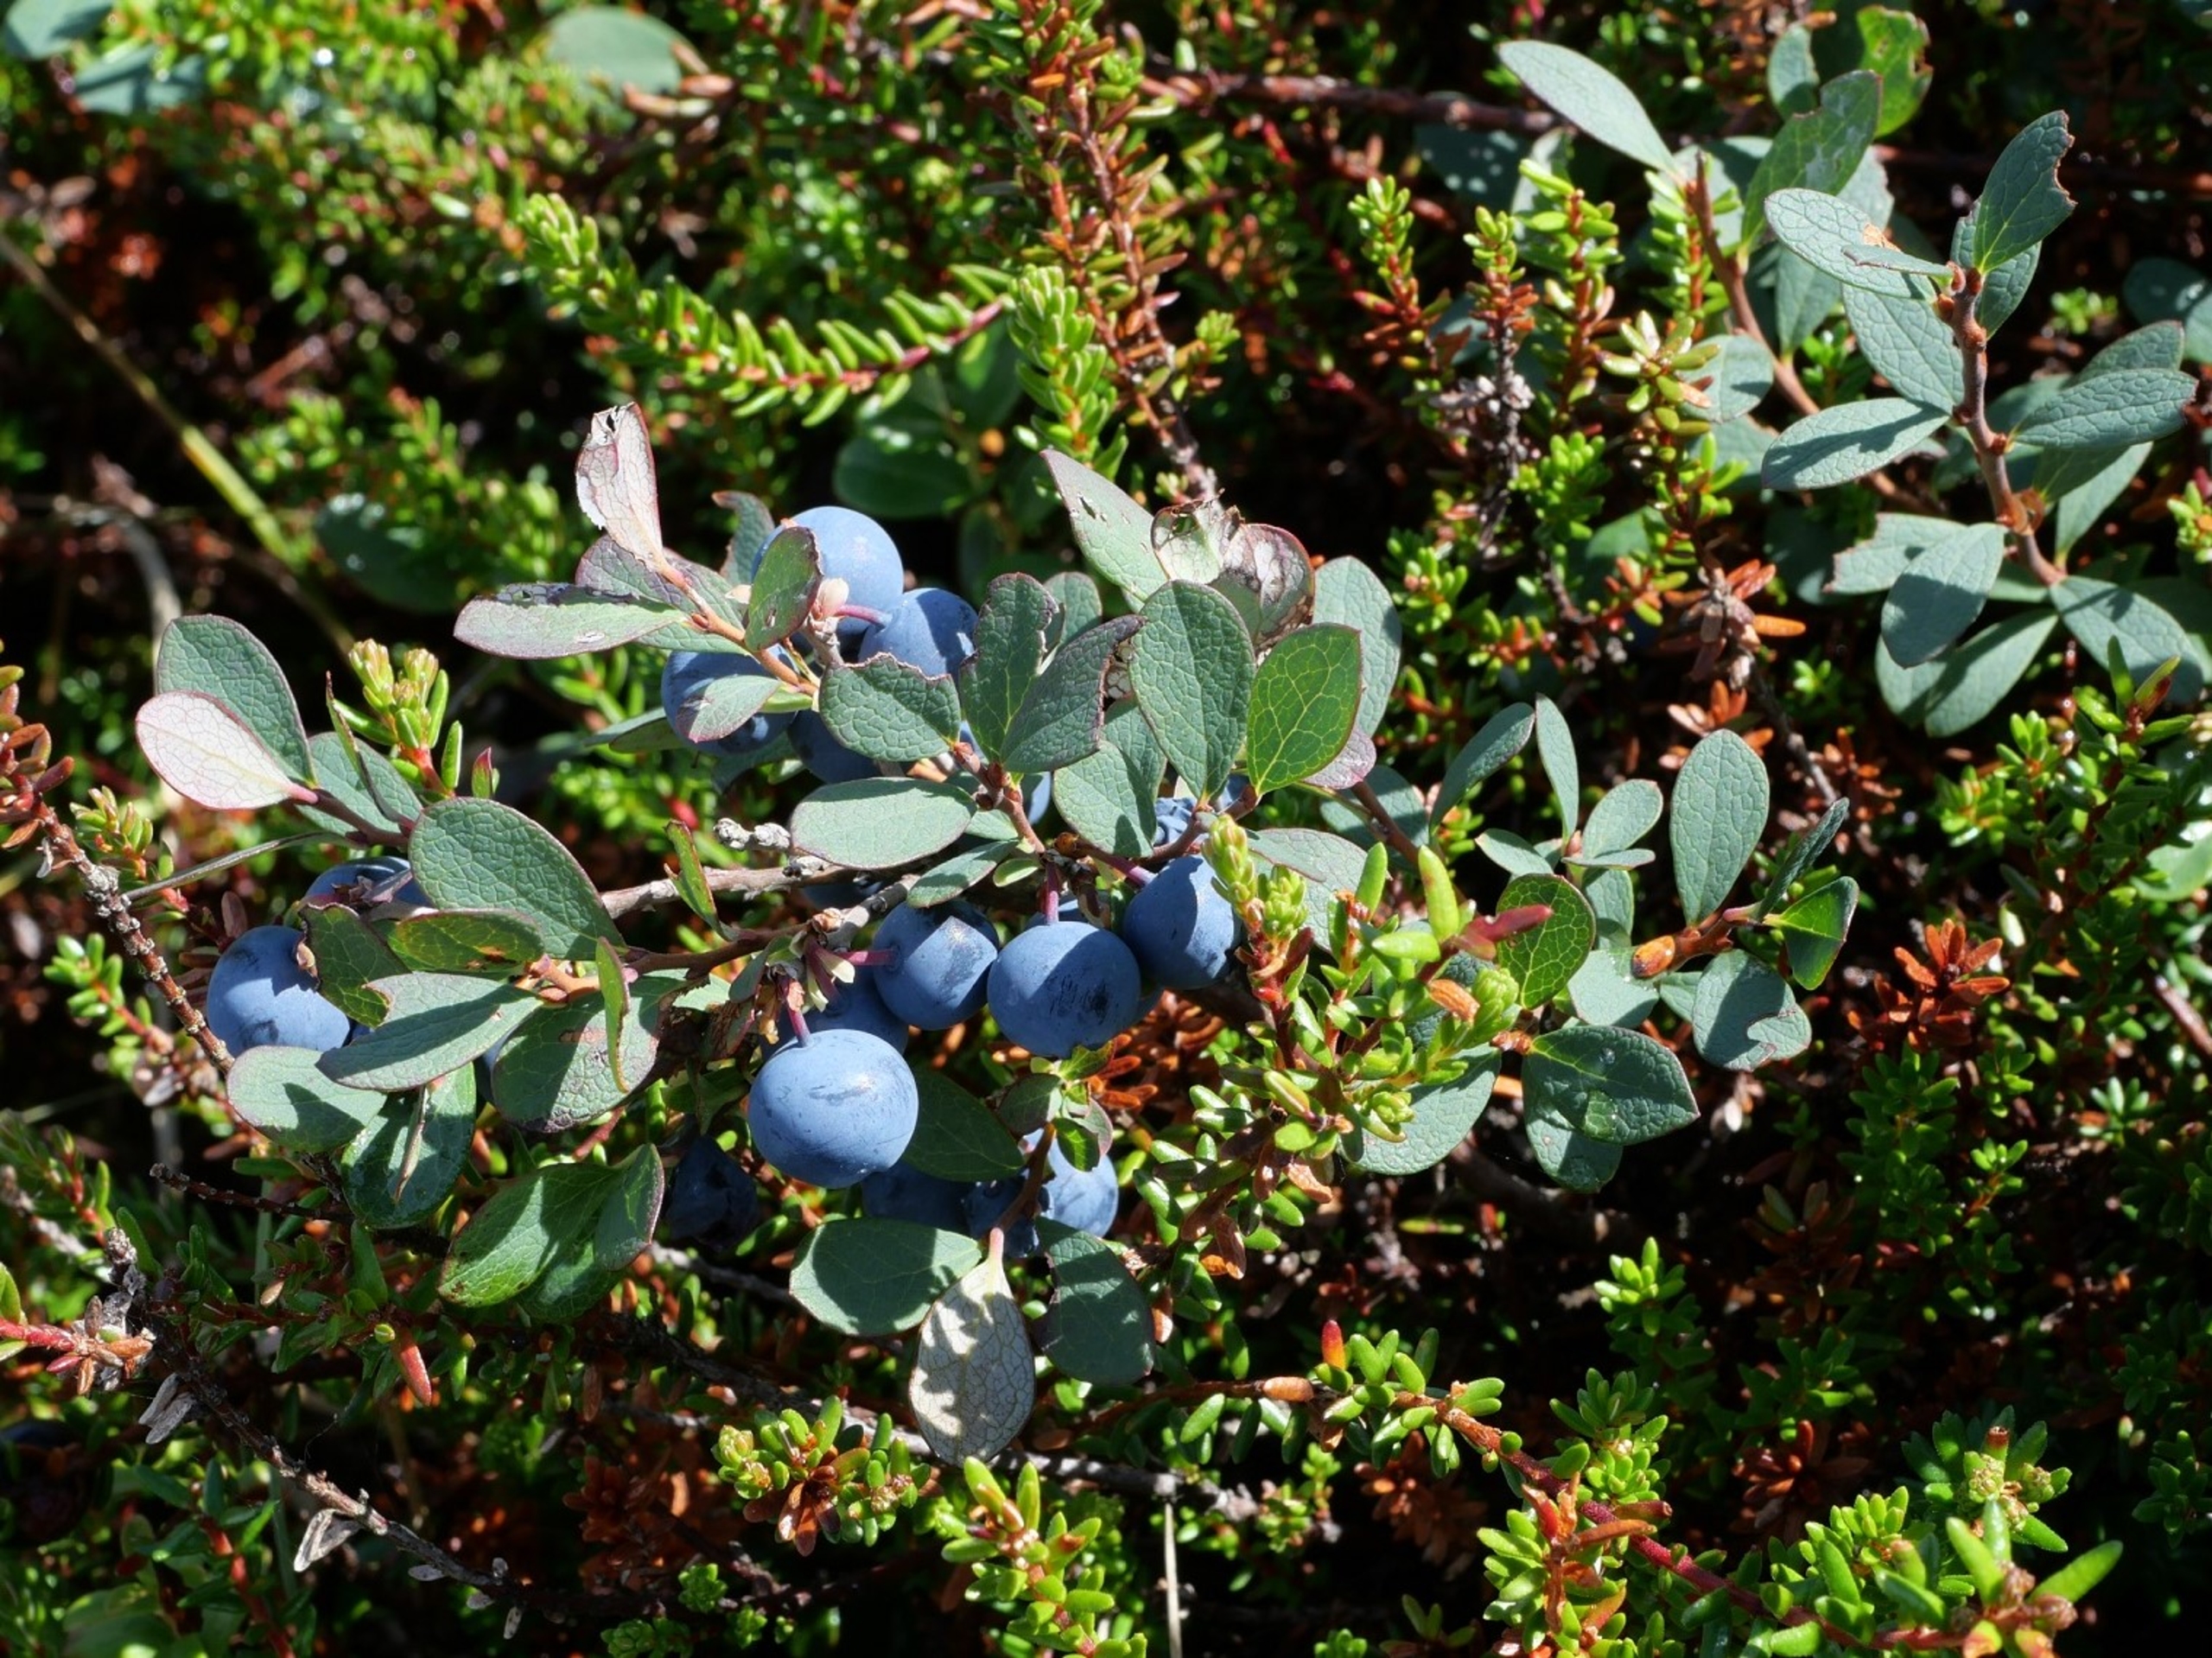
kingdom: Plantae
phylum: Tracheophyta
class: Magnoliopsida
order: Ericales
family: Ericaceae
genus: Vaccinium
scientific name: Vaccinium uliginosum
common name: Mose-bølle
